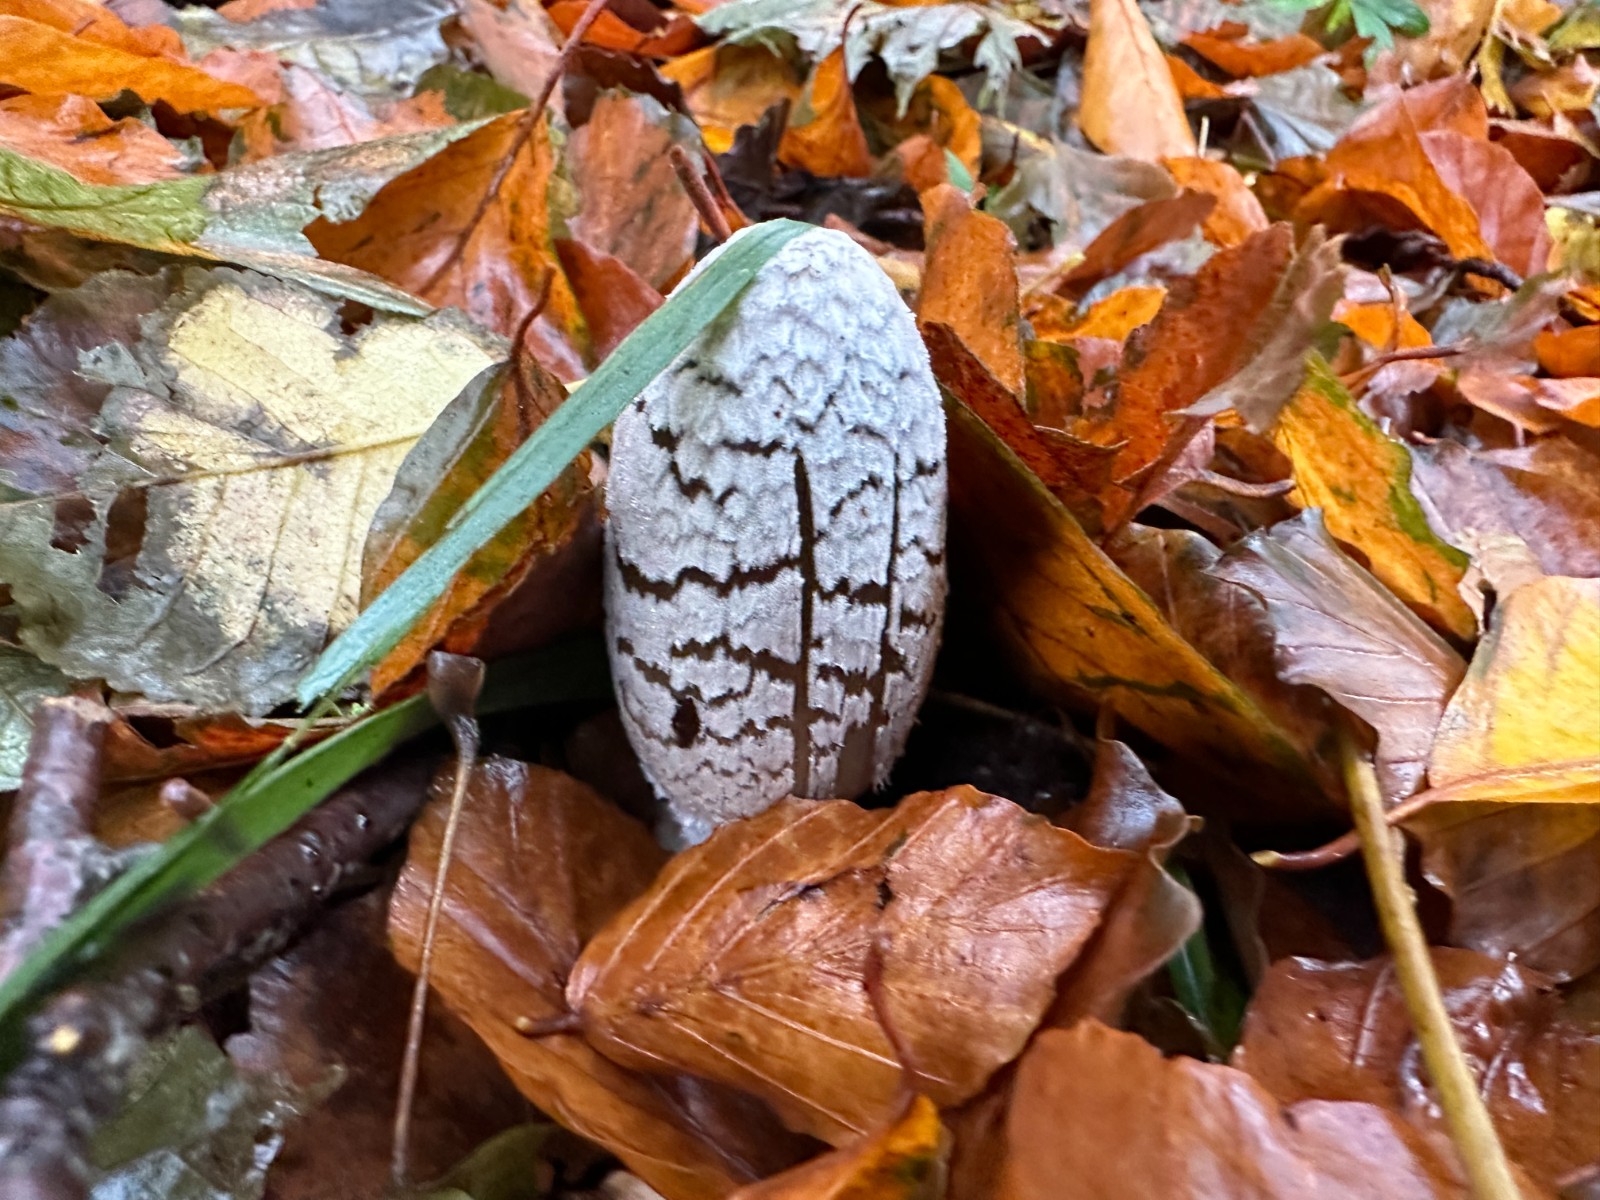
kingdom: Fungi
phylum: Basidiomycota
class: Agaricomycetes
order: Agaricales
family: Psathyrellaceae
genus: Coprinopsis
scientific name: Coprinopsis picacea
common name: skade-blækhat
